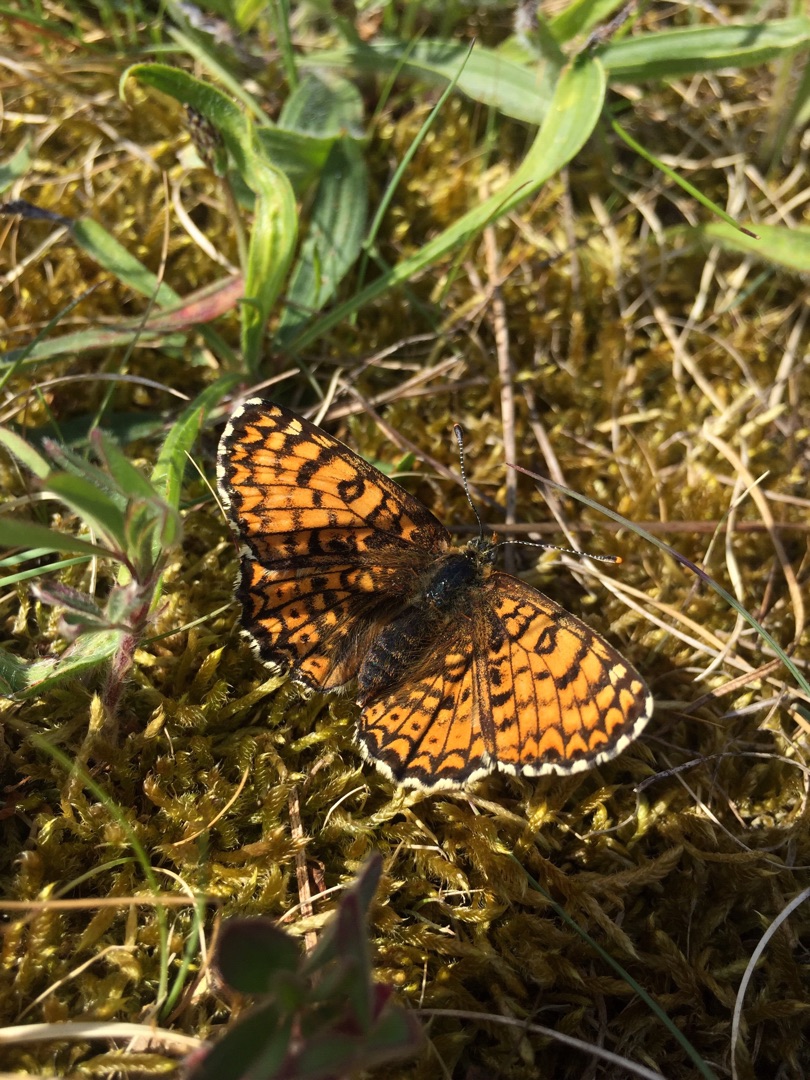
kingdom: Animalia
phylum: Arthropoda
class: Insecta
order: Lepidoptera
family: Nymphalidae
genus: Melitaea
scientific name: Melitaea cinxia
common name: Okkergul pletvinge
